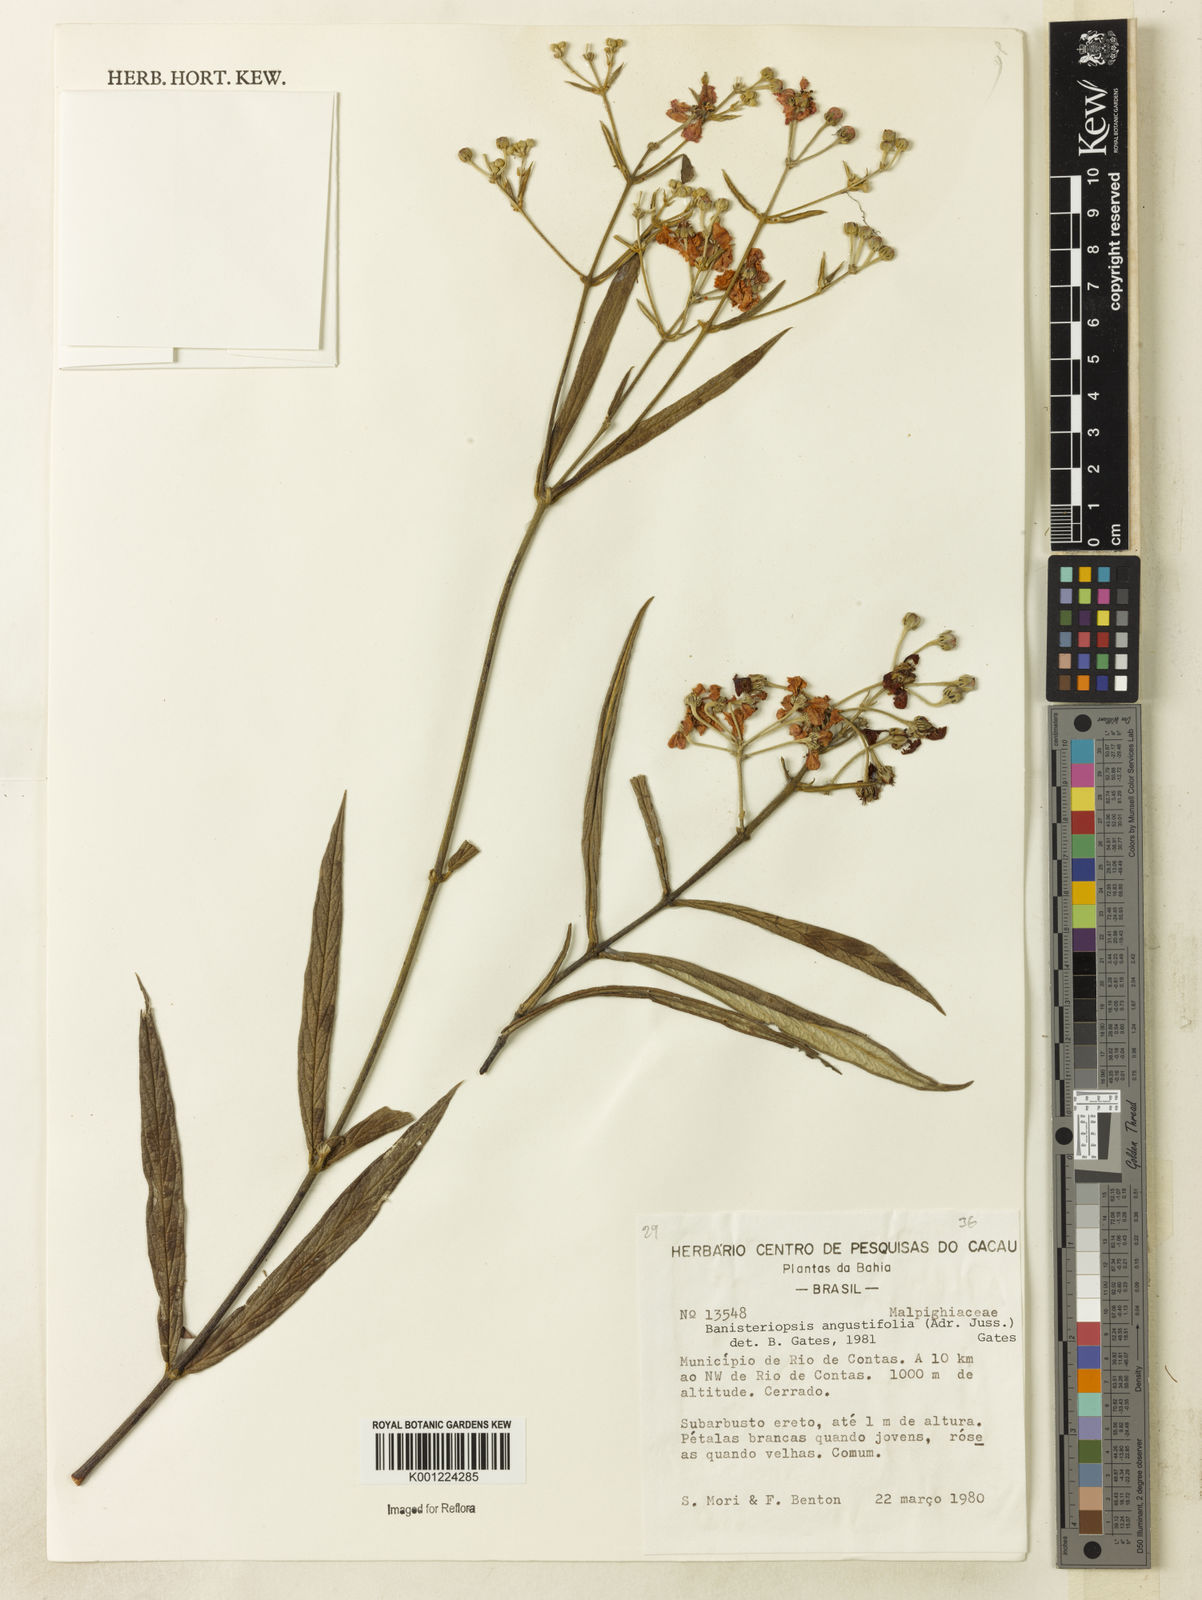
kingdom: Plantae
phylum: Tracheophyta
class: Magnoliopsida
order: Malpighiales
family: Malpighiaceae
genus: Banisteriopsis
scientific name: Banisteriopsis angustifolia
